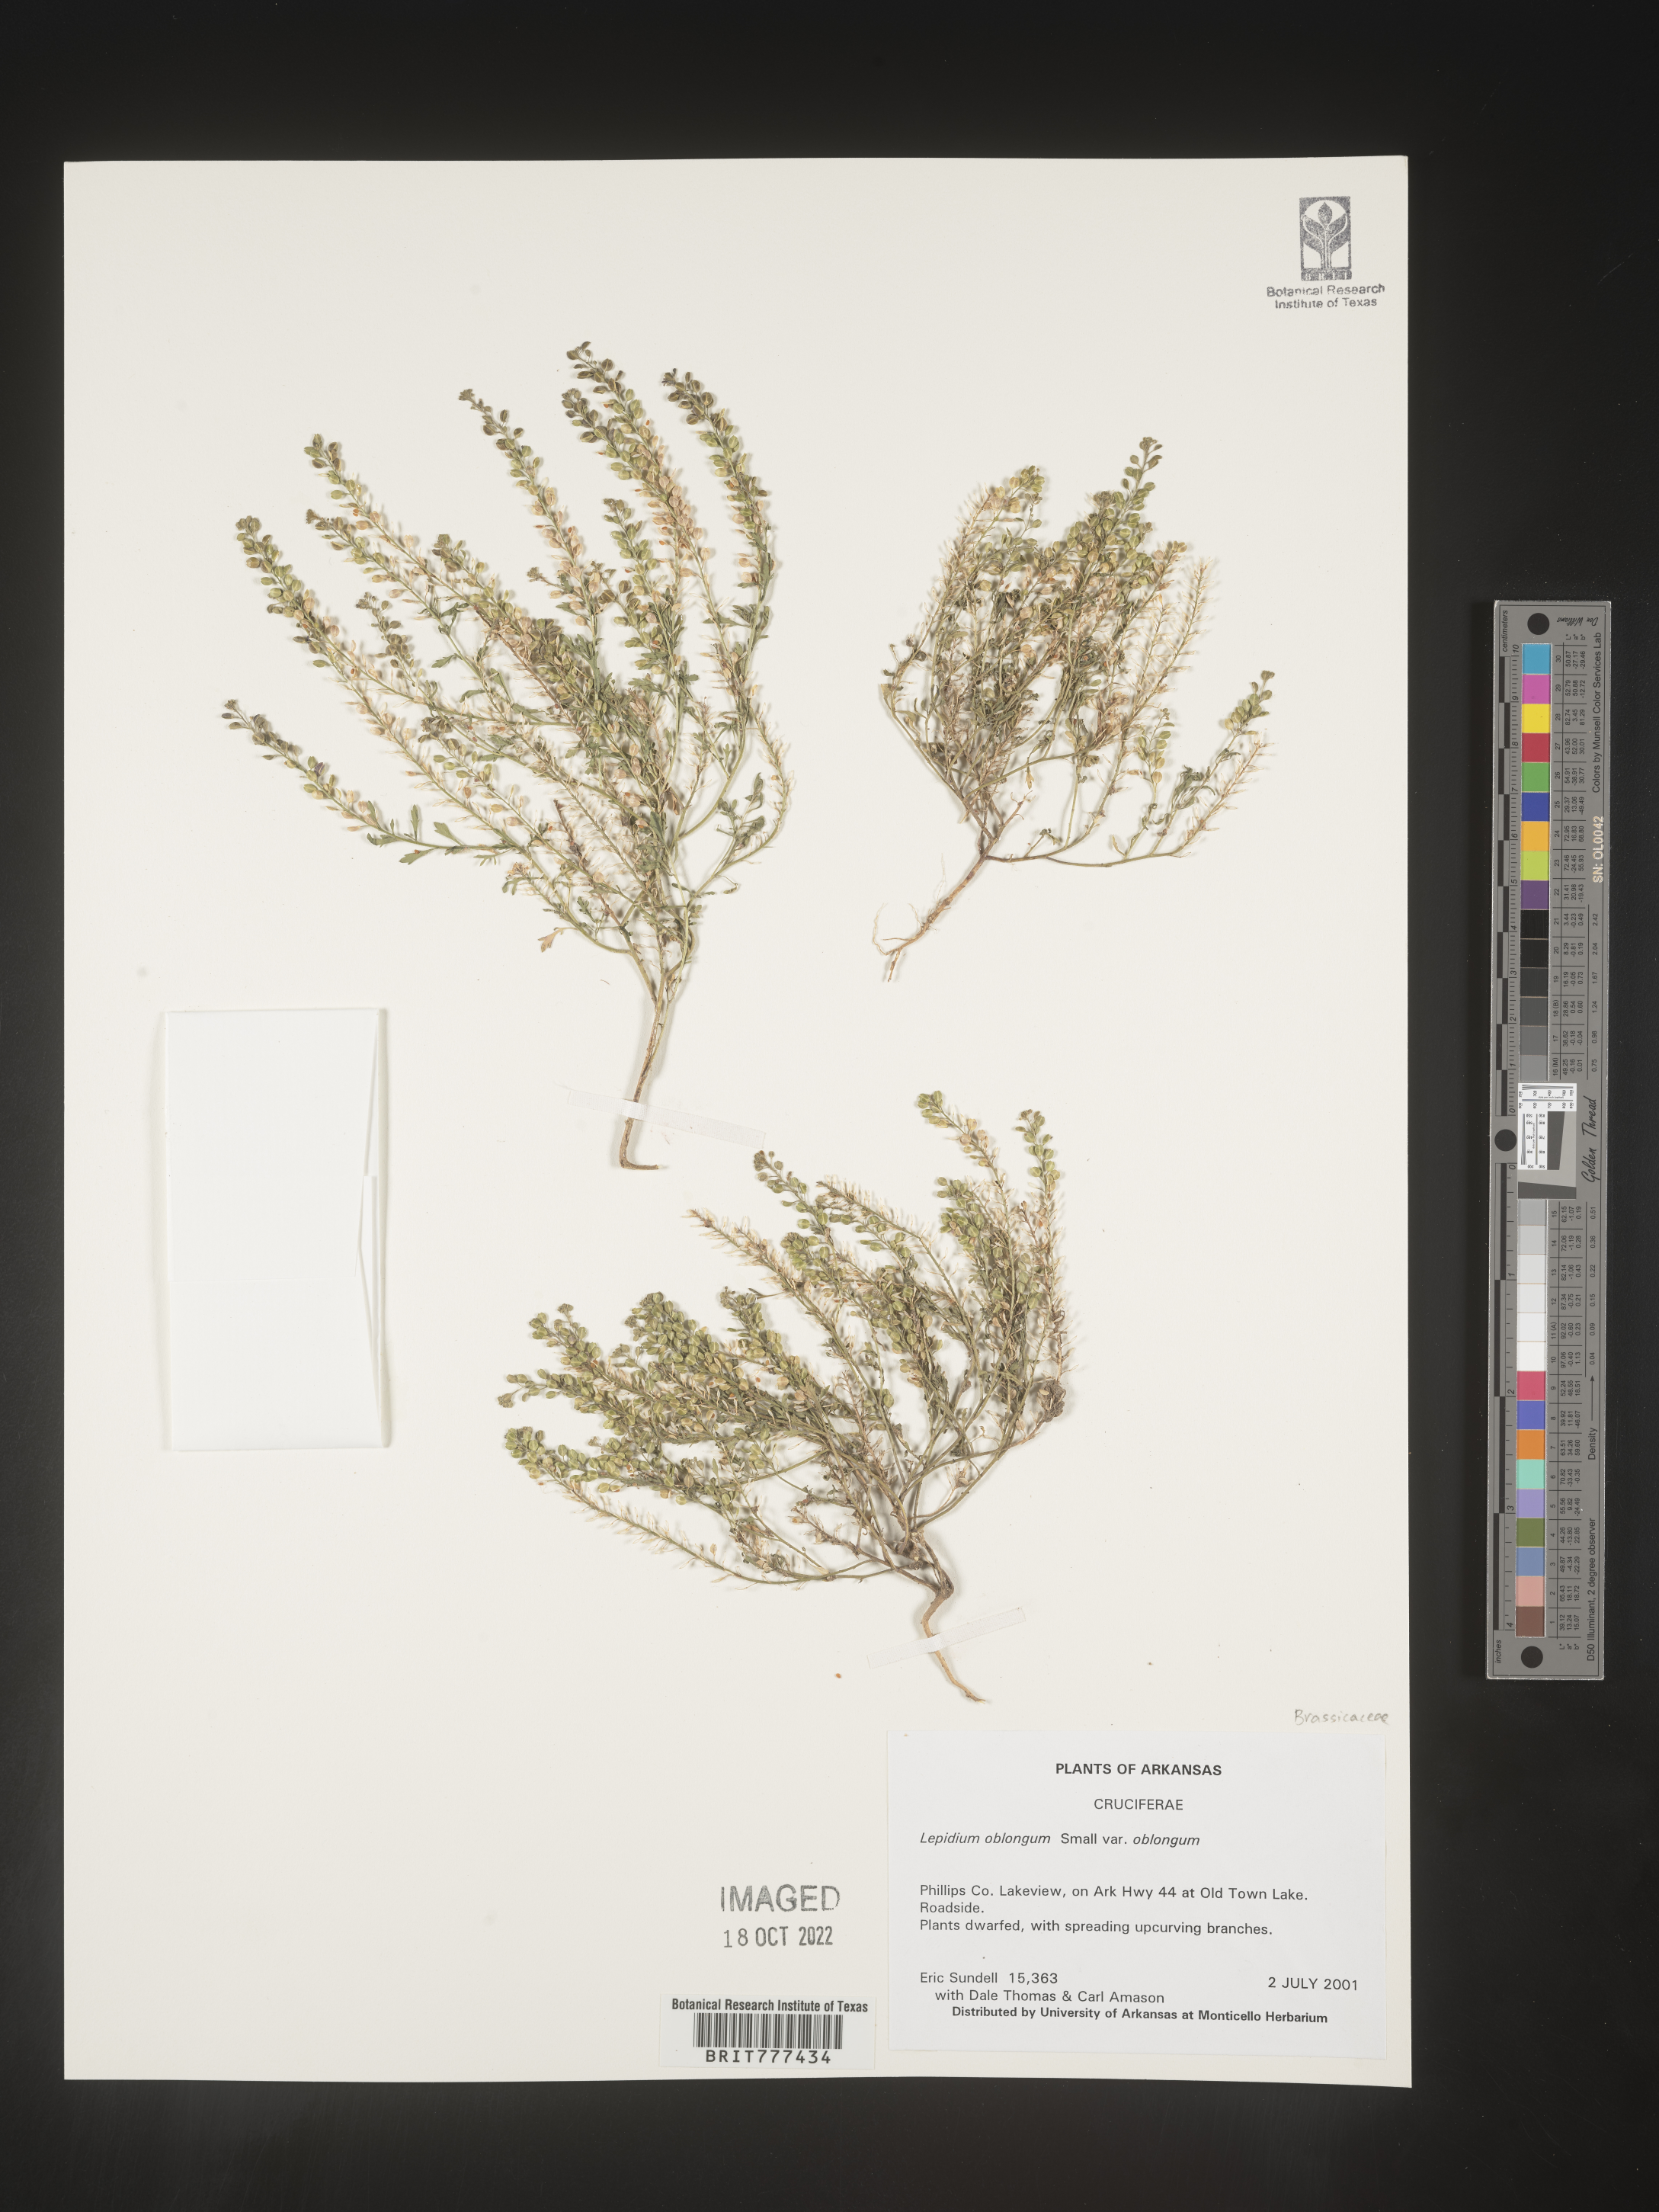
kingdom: Plantae
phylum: Tracheophyta
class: Magnoliopsida
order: Brassicales
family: Brassicaceae
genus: Lepidium
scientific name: Lepidium oblongum
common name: Veiny pepperweed
